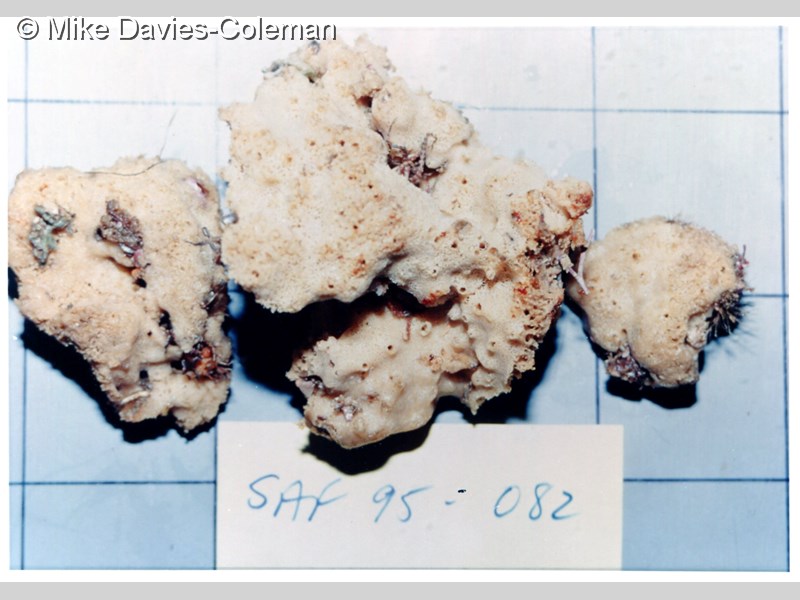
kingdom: Animalia
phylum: Porifera
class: Demospongiae
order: Haplosclerida
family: Chalinidae
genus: Haliclona
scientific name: Haliclona
